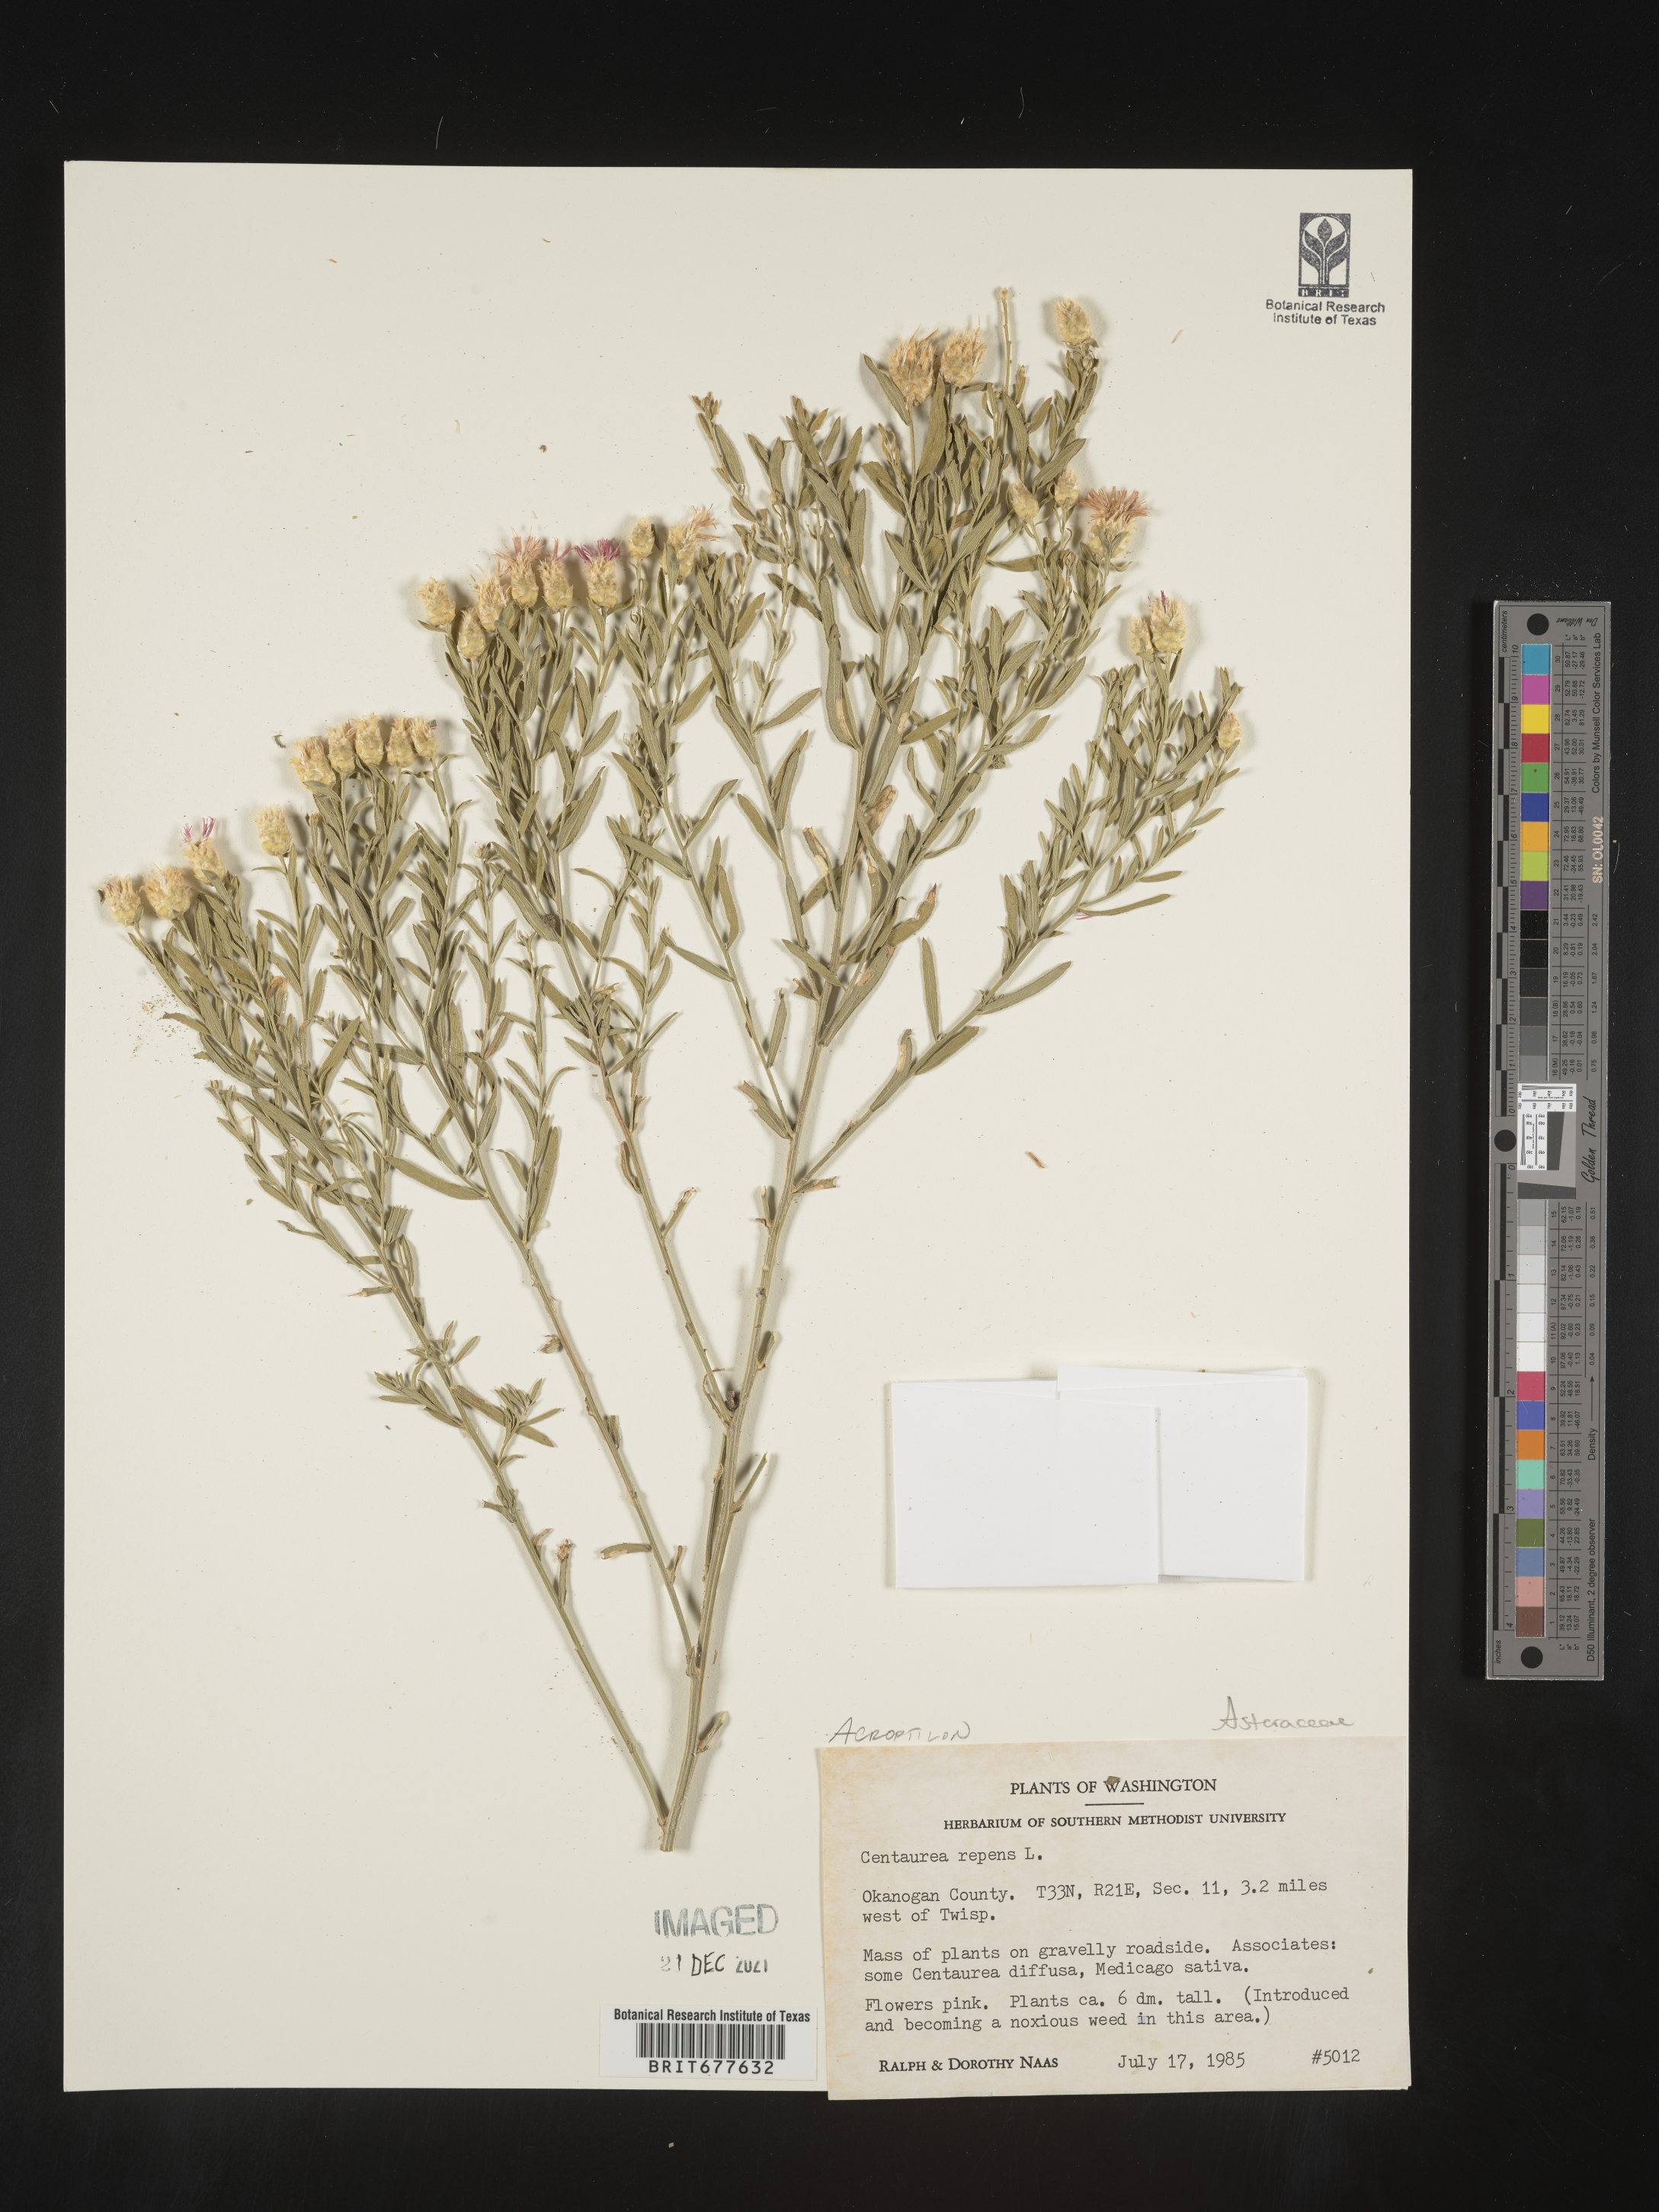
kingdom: Plantae
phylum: Tracheophyta
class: Magnoliopsida
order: Asterales
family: Asteraceae
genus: Leuzea
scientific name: Leuzea repens
